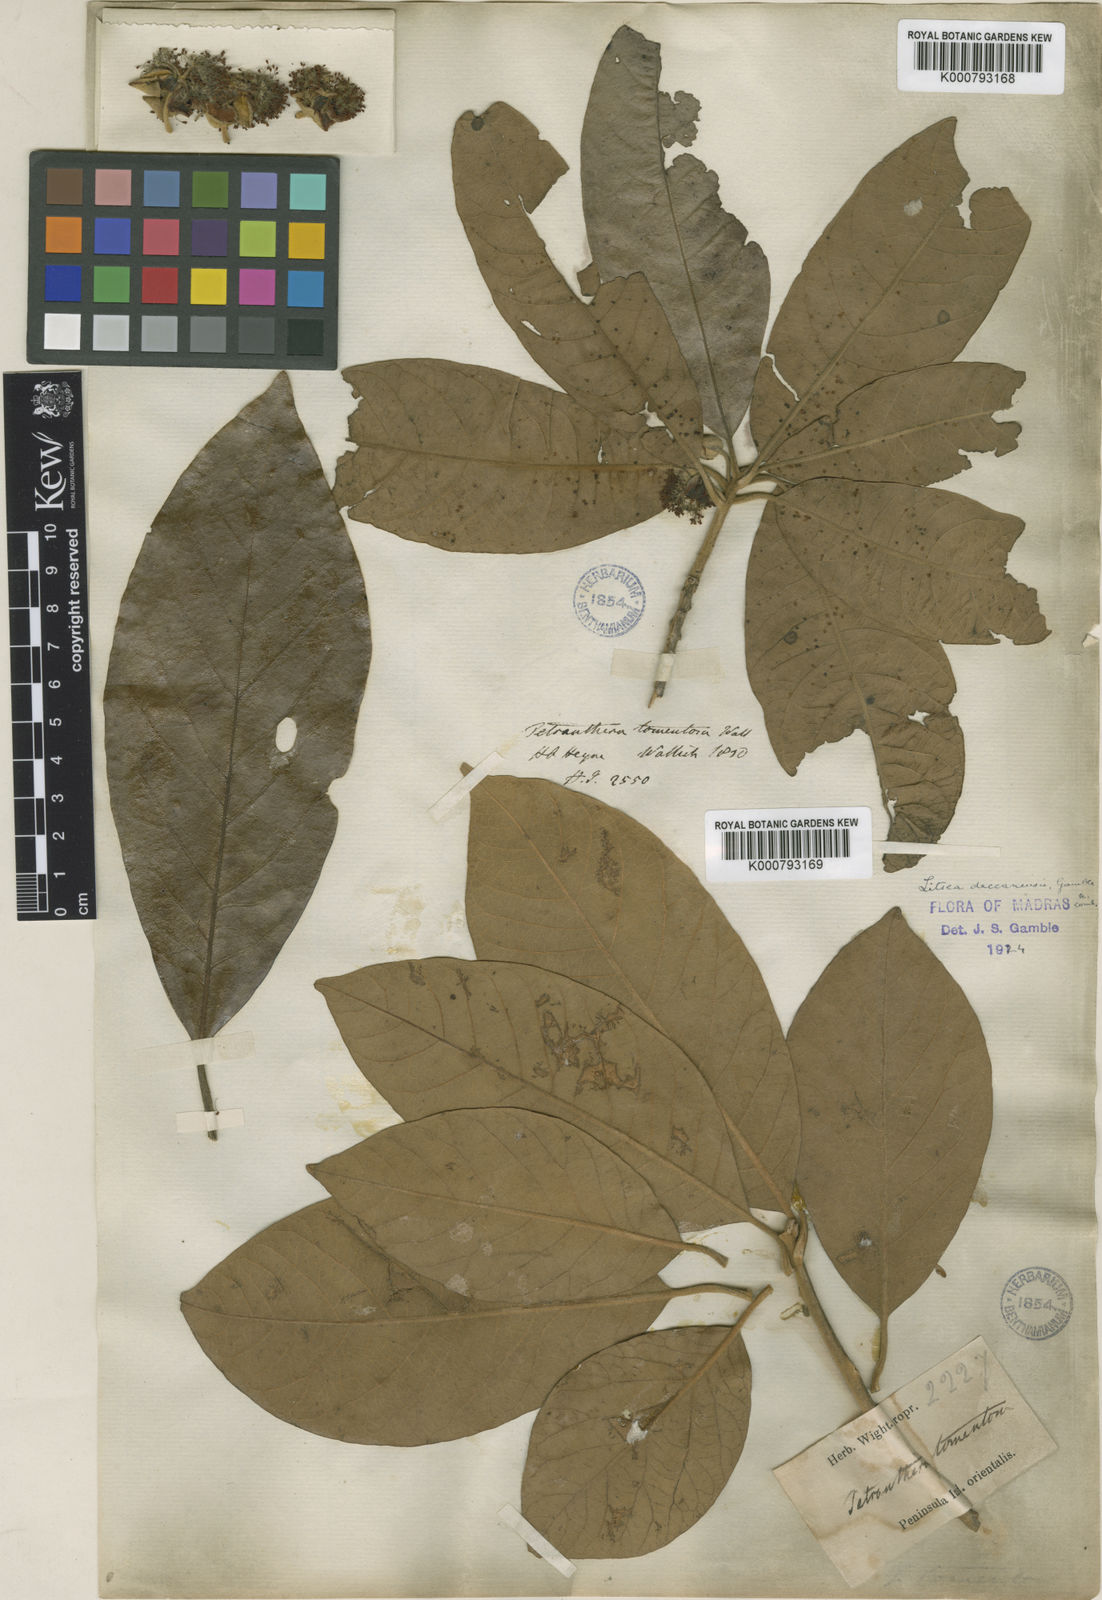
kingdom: Plantae
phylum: Tracheophyta
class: Magnoliopsida
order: Laurales
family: Lauraceae
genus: Litsea
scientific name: Litsea ligustrina
